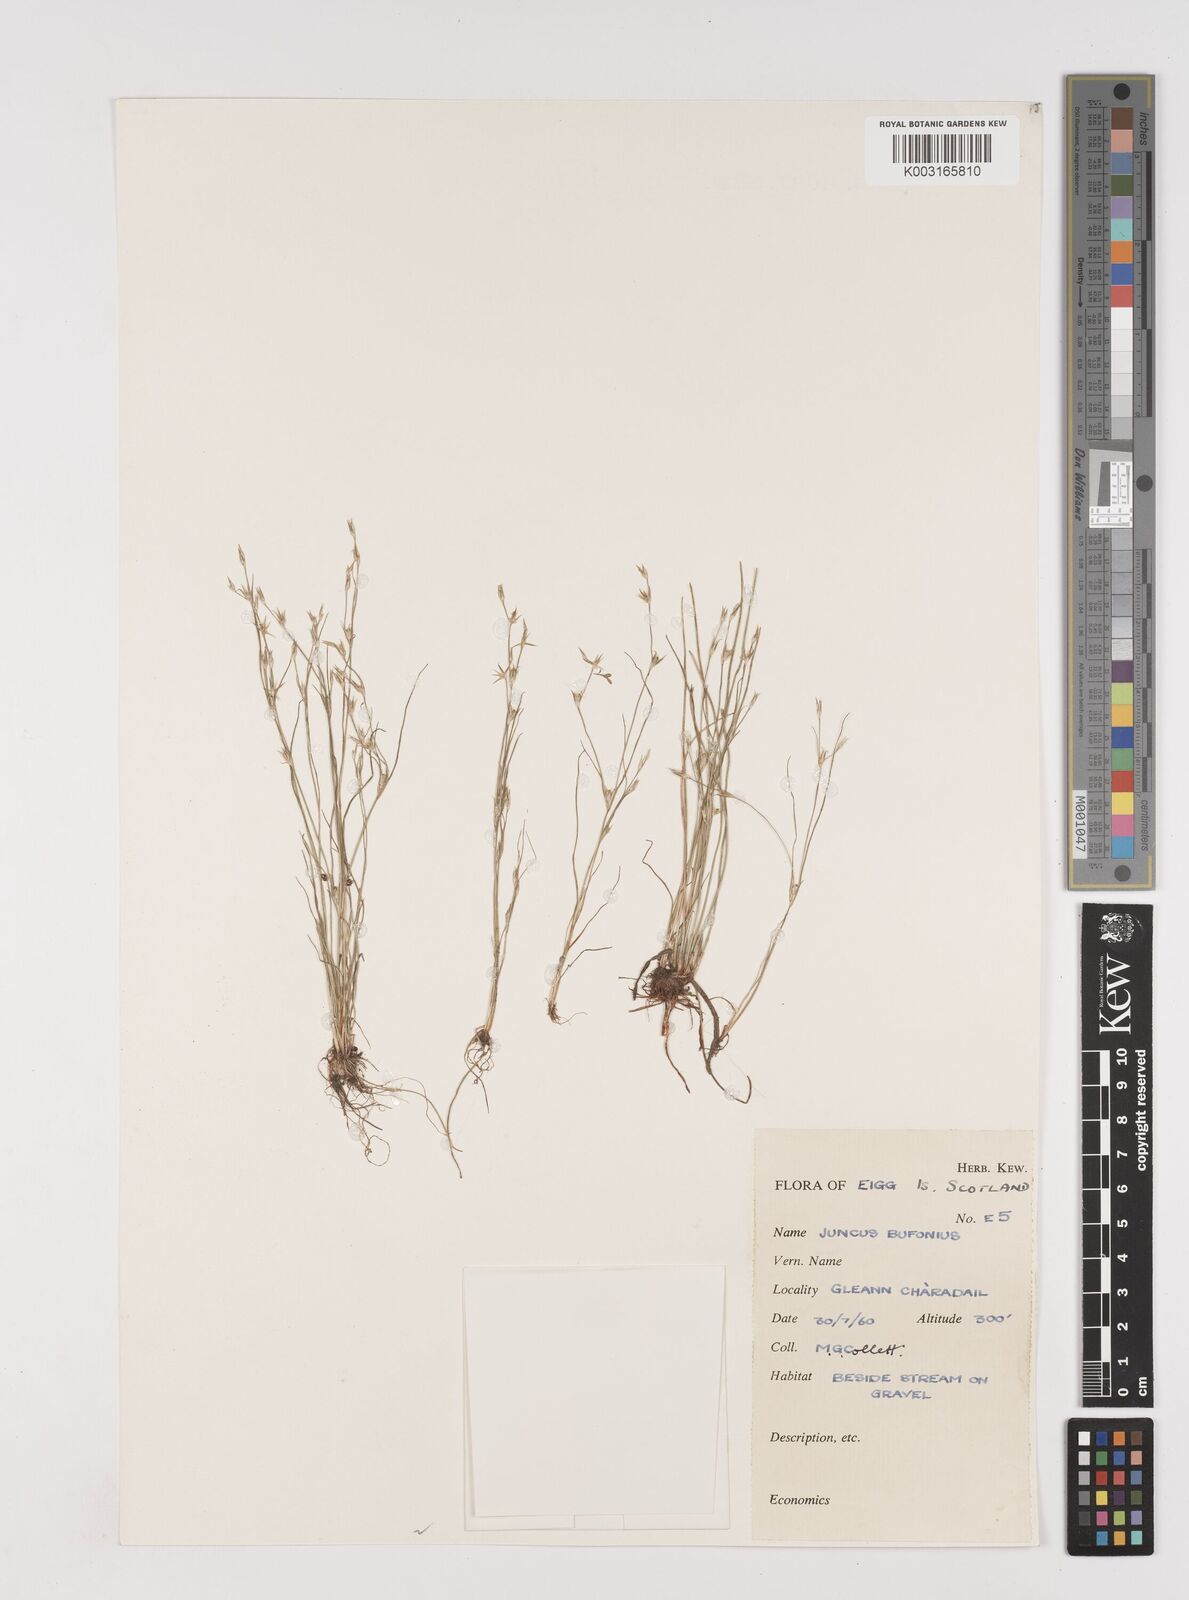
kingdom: Plantae
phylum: Tracheophyta
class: Liliopsida
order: Poales
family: Juncaceae
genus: Juncus
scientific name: Juncus bufonius
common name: Toad rush
